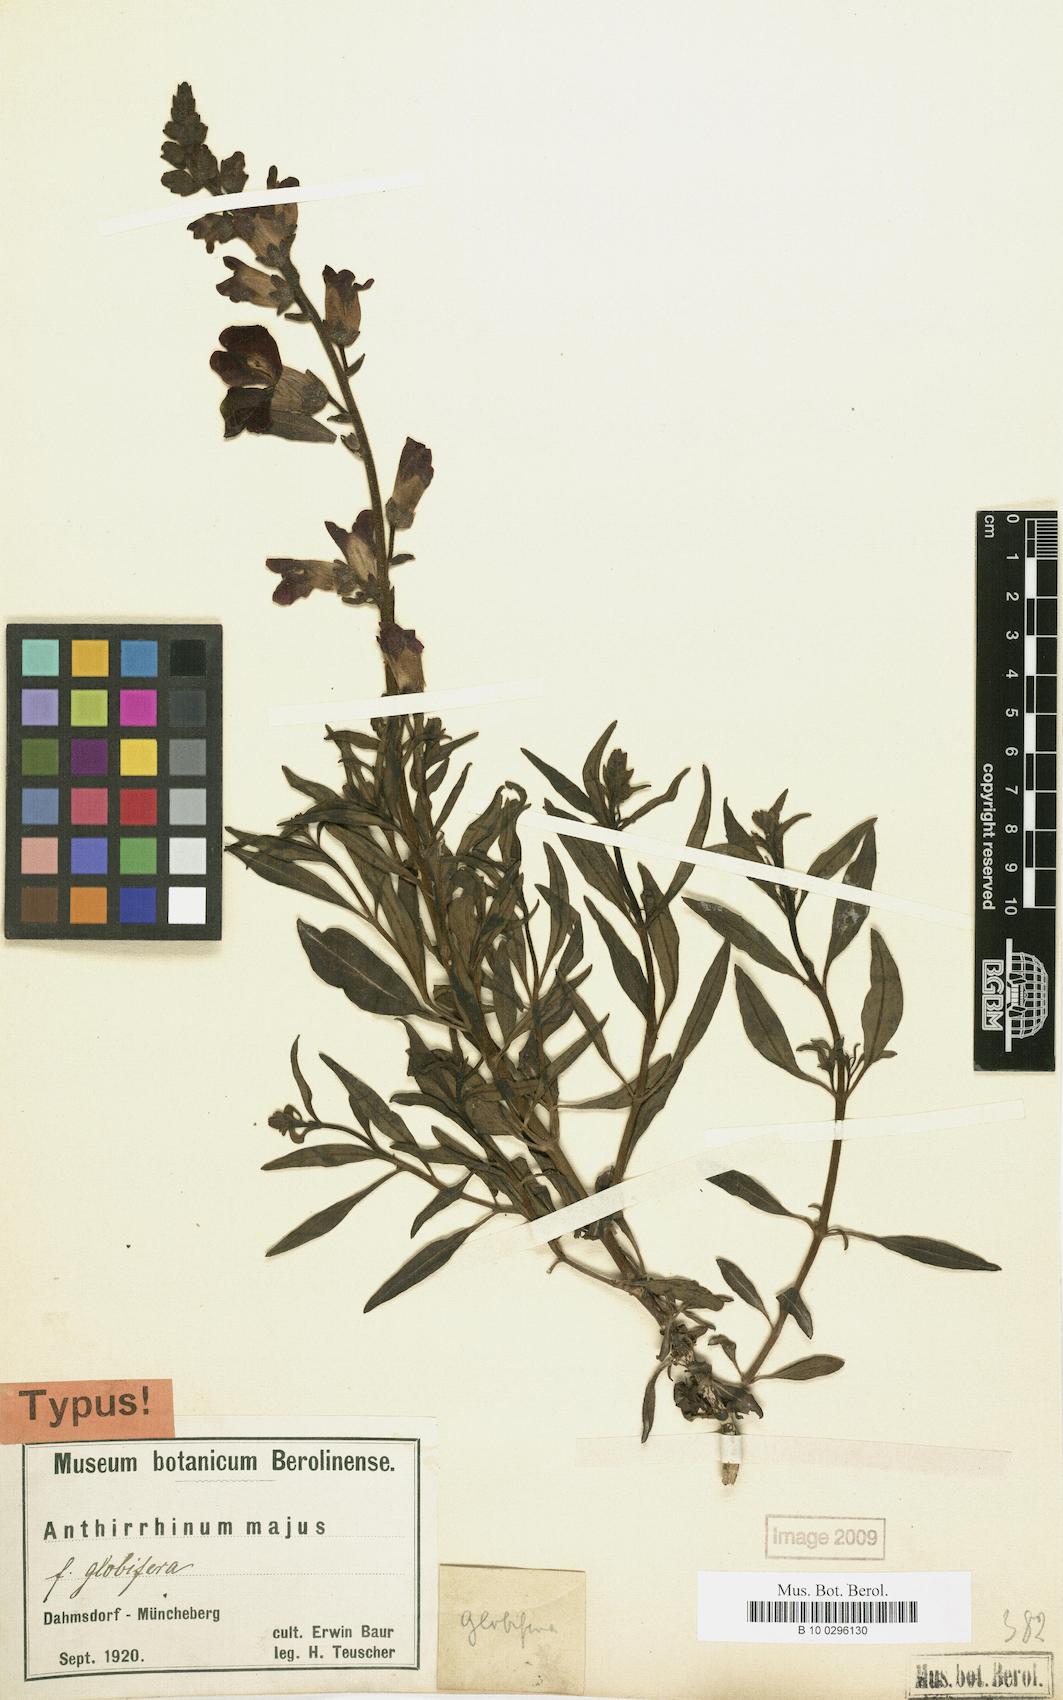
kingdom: Plantae
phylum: Tracheophyta
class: Magnoliopsida
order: Lamiales
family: Plantaginaceae
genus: Antirrhinum
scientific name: Antirrhinum majus
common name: Snapdragon
